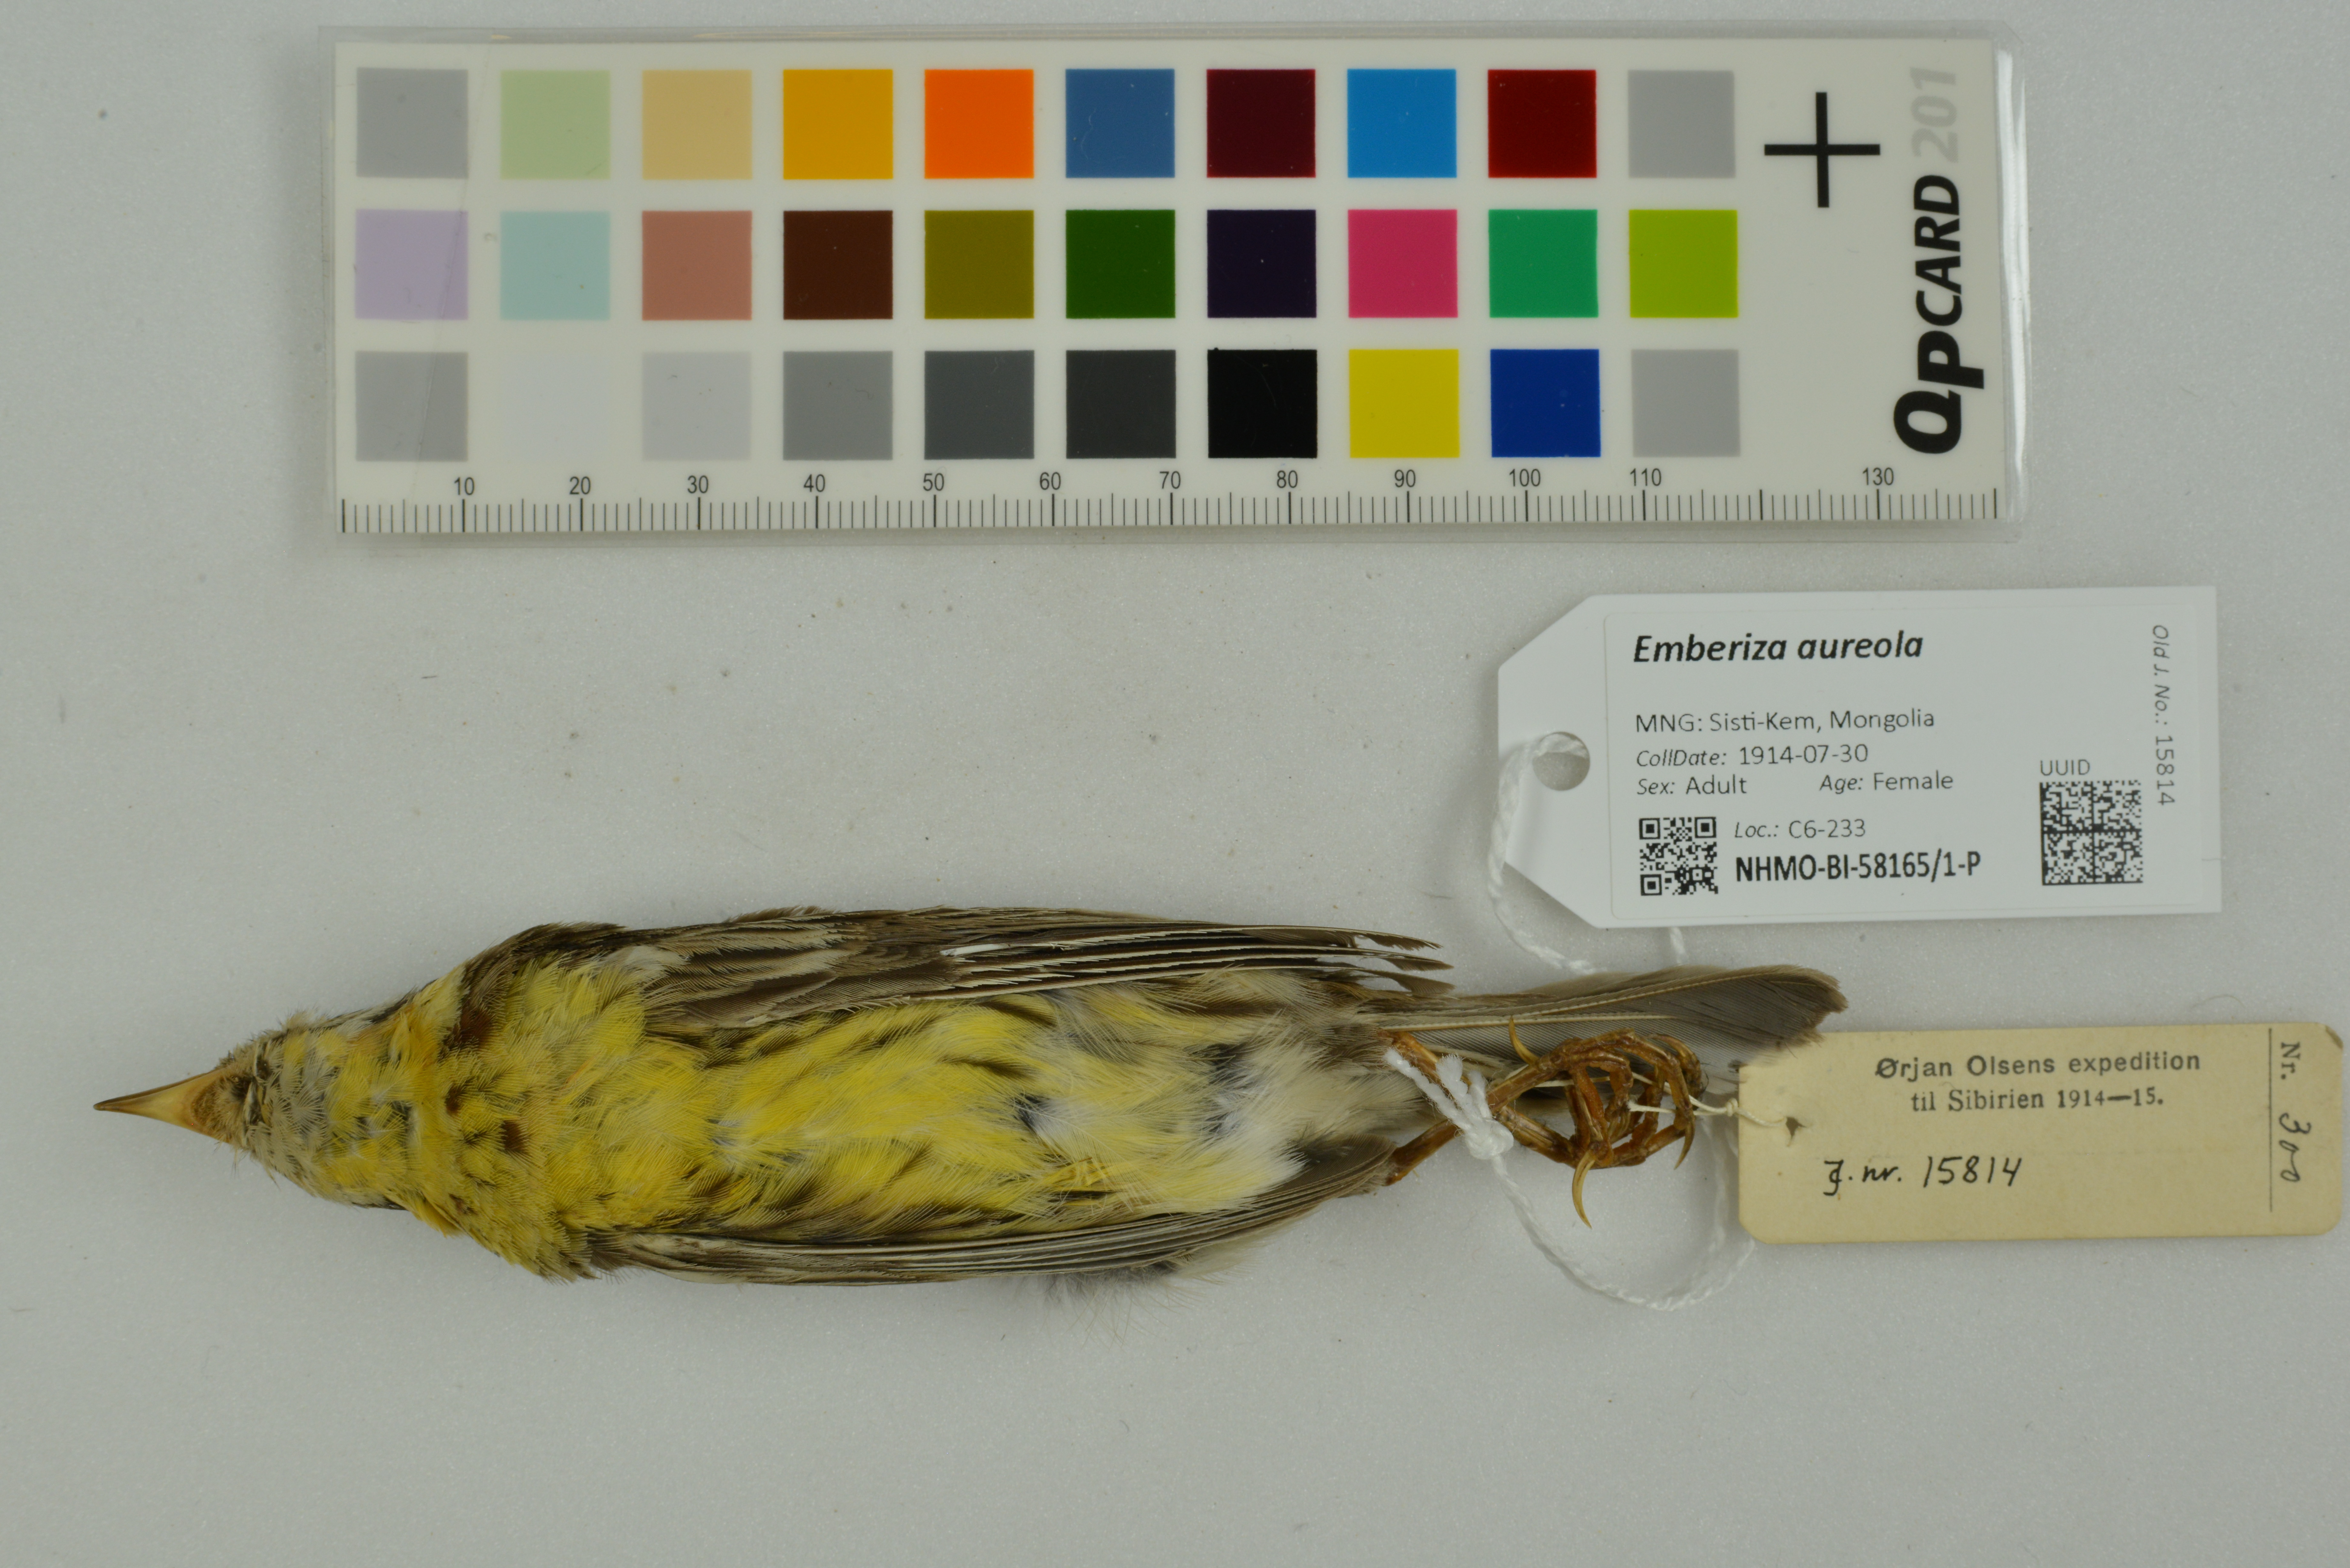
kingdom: Animalia
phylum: Chordata
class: Aves
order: Passeriformes
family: Emberizidae
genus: Emberiza
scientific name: Emberiza aureola
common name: Yellow-breasted bunting
